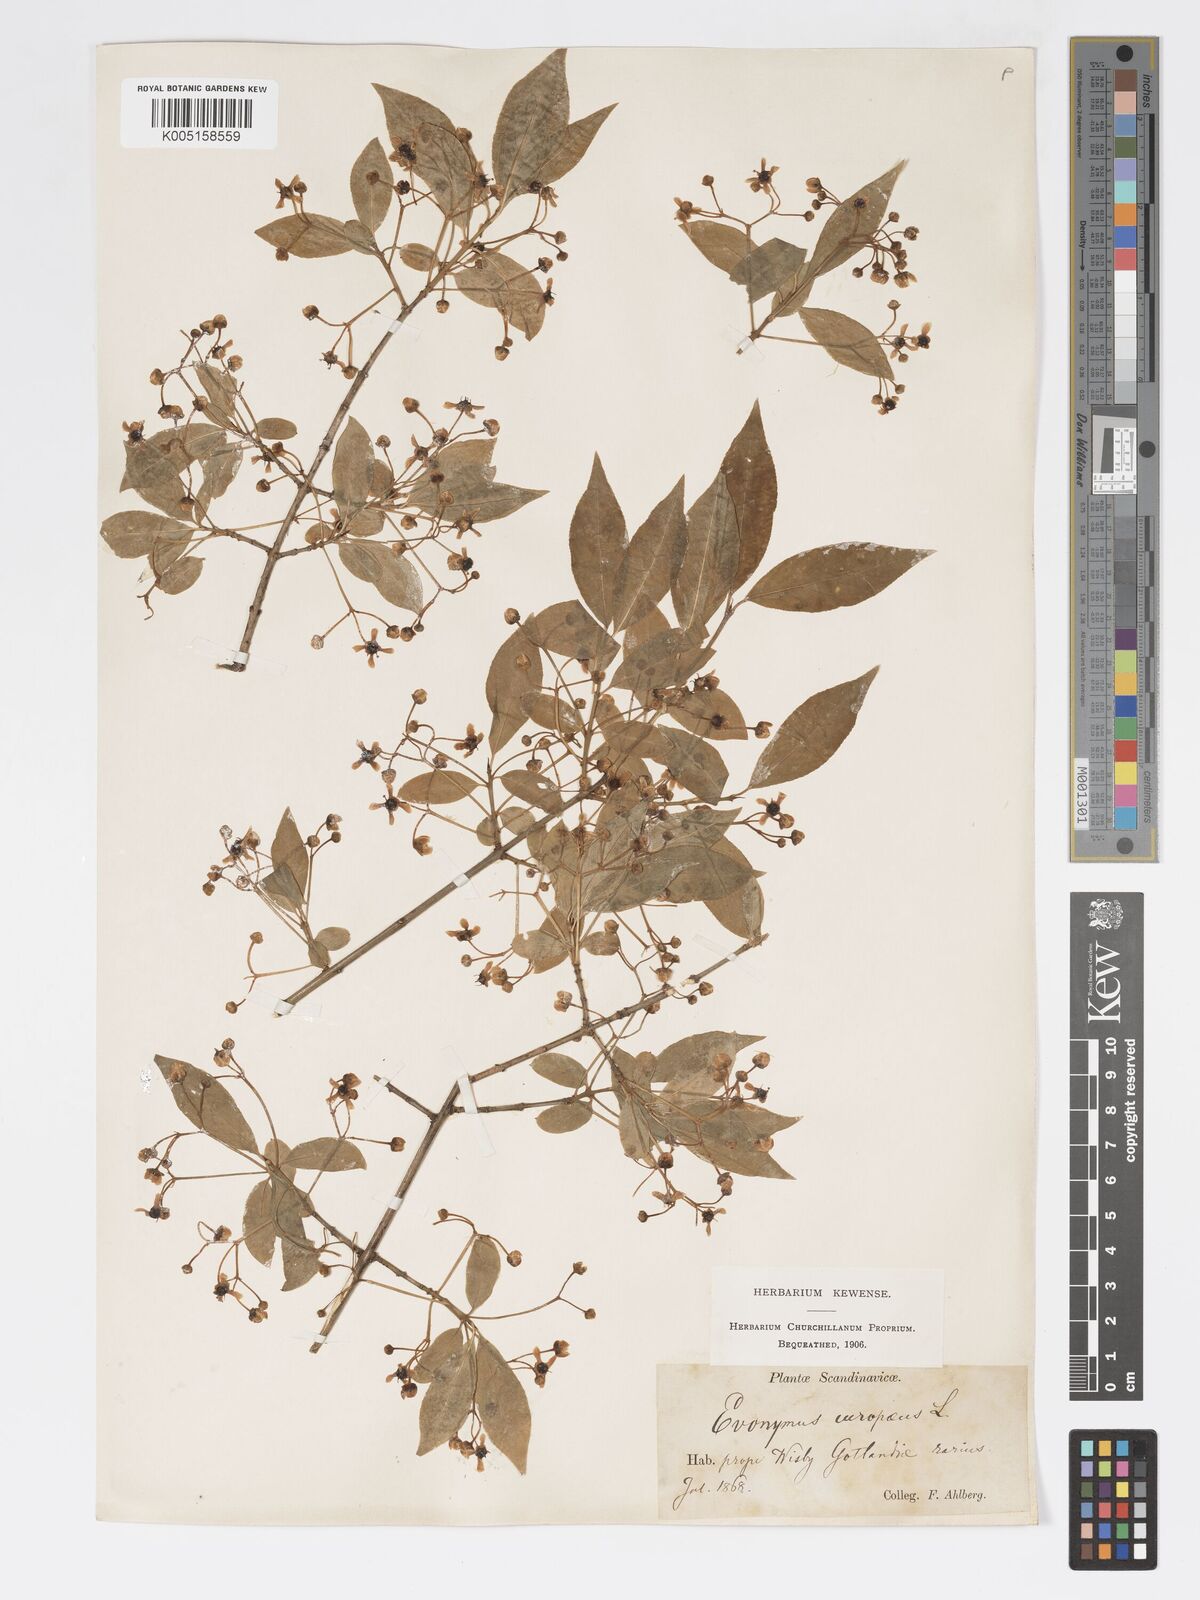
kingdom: Plantae
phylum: Tracheophyta
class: Magnoliopsida
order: Celastrales
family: Celastraceae
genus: Euonymus
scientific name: Euonymus europaeus
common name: Spindle
